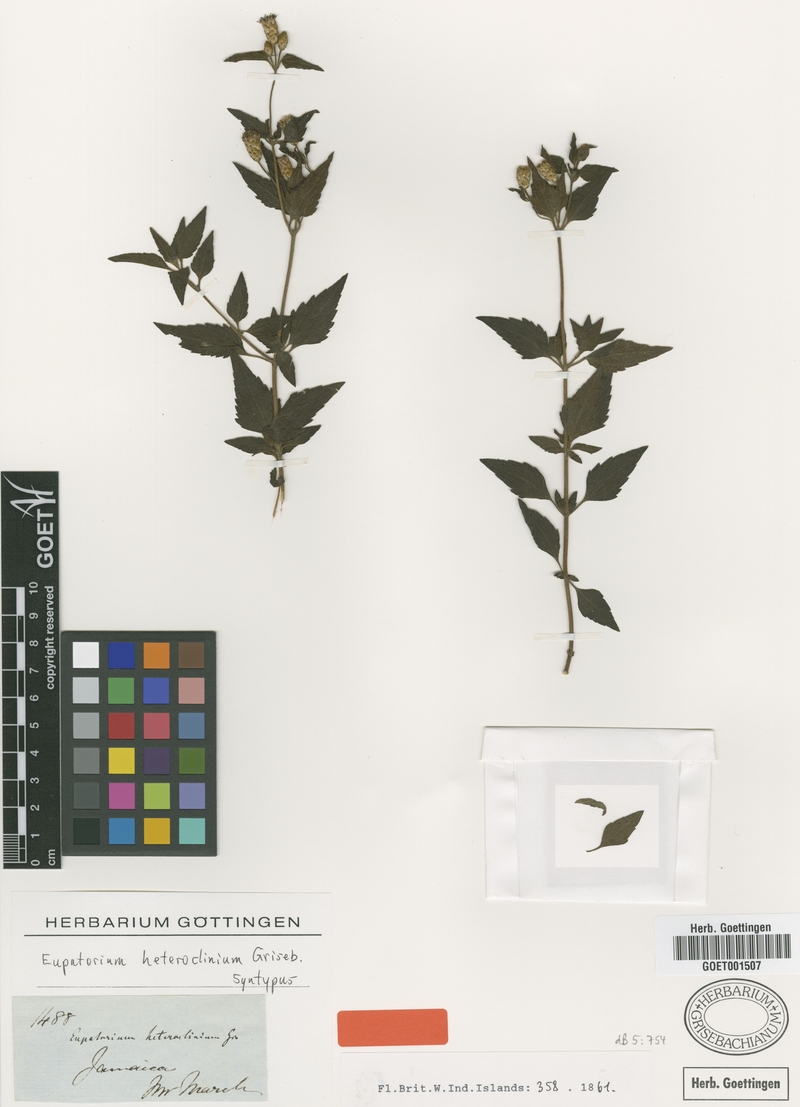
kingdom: Plantae
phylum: Tracheophyta
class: Magnoliopsida
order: Asterales
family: Asteraceae
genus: Chromolaena
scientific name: Chromolaena heteroclinia
